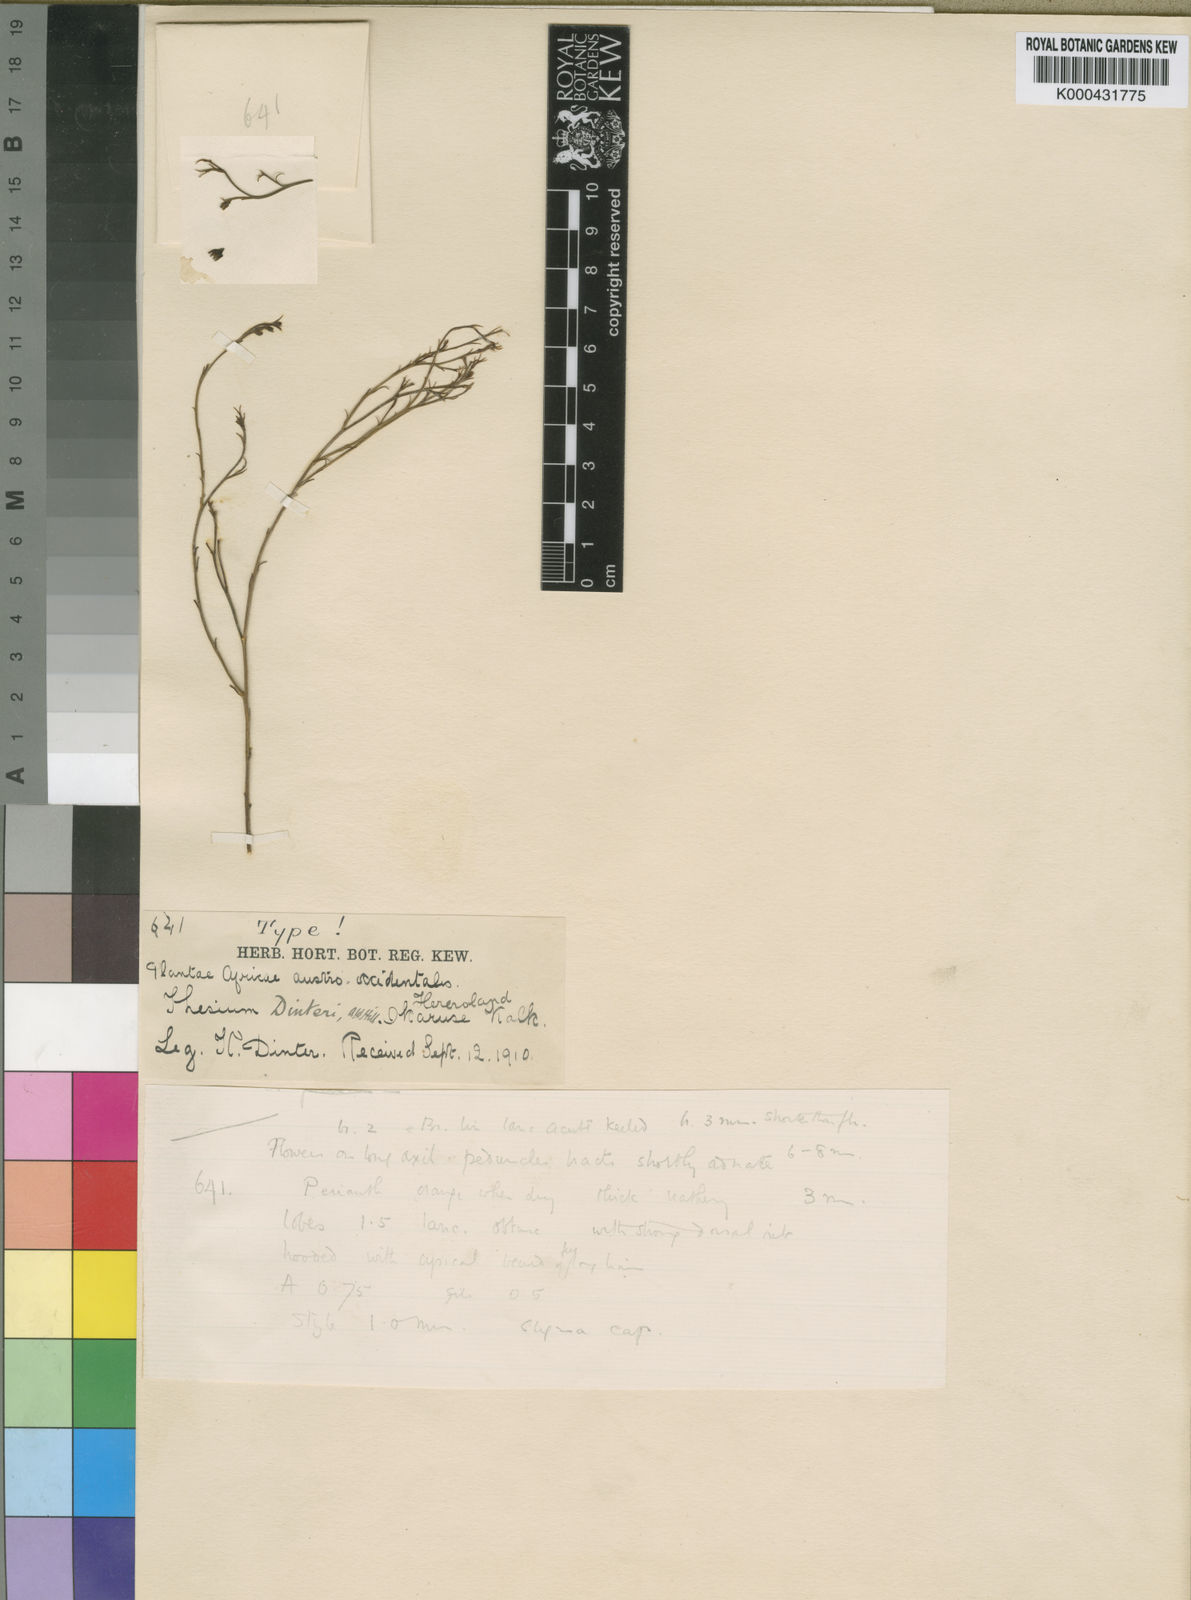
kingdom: Plantae
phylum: Tracheophyta
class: Magnoliopsida
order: Santalales
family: Thesiaceae
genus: Thesium
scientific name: Thesium megalocarpum
